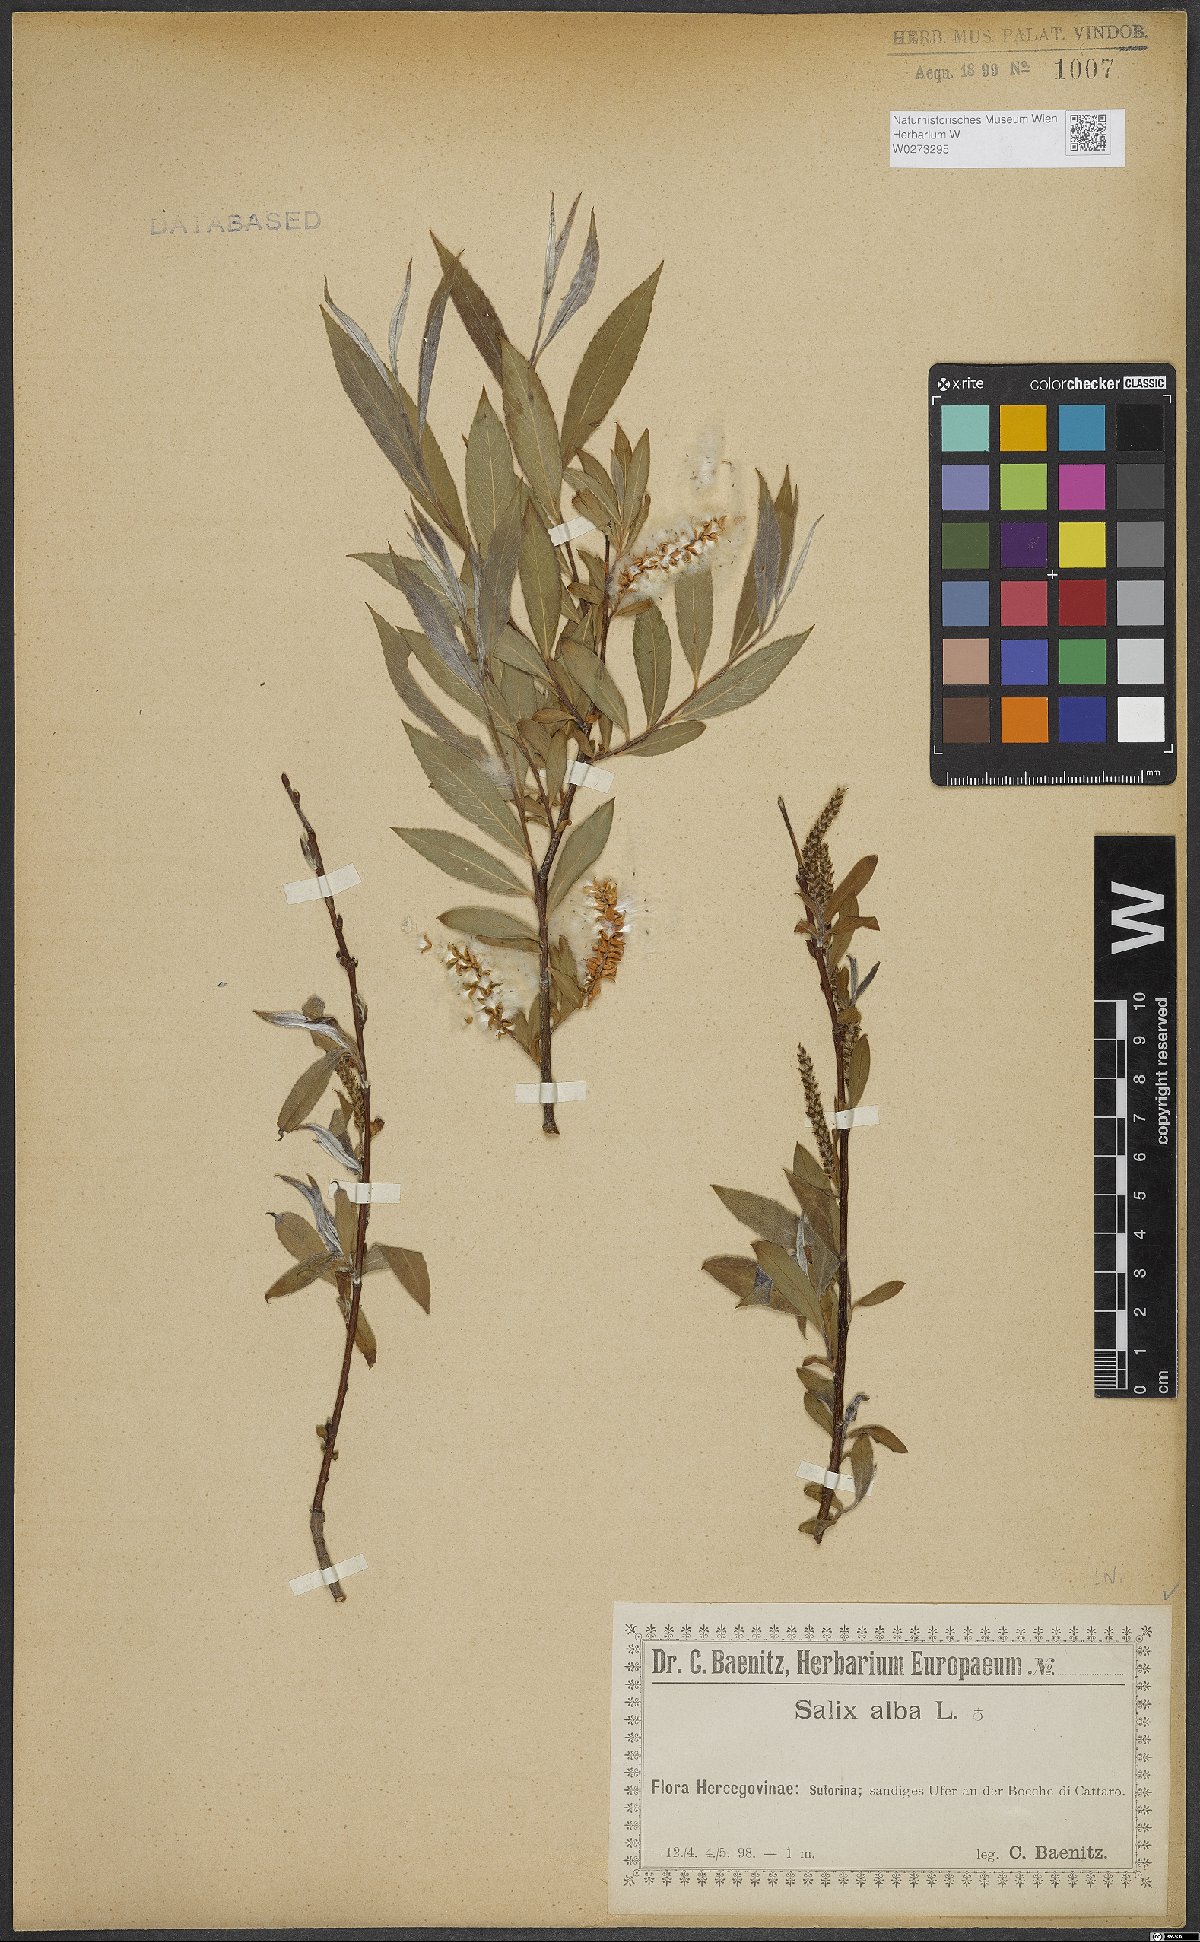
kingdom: Plantae
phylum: Tracheophyta
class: Magnoliopsida
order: Malpighiales
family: Salicaceae
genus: Salix
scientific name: Salix alba
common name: White willow
